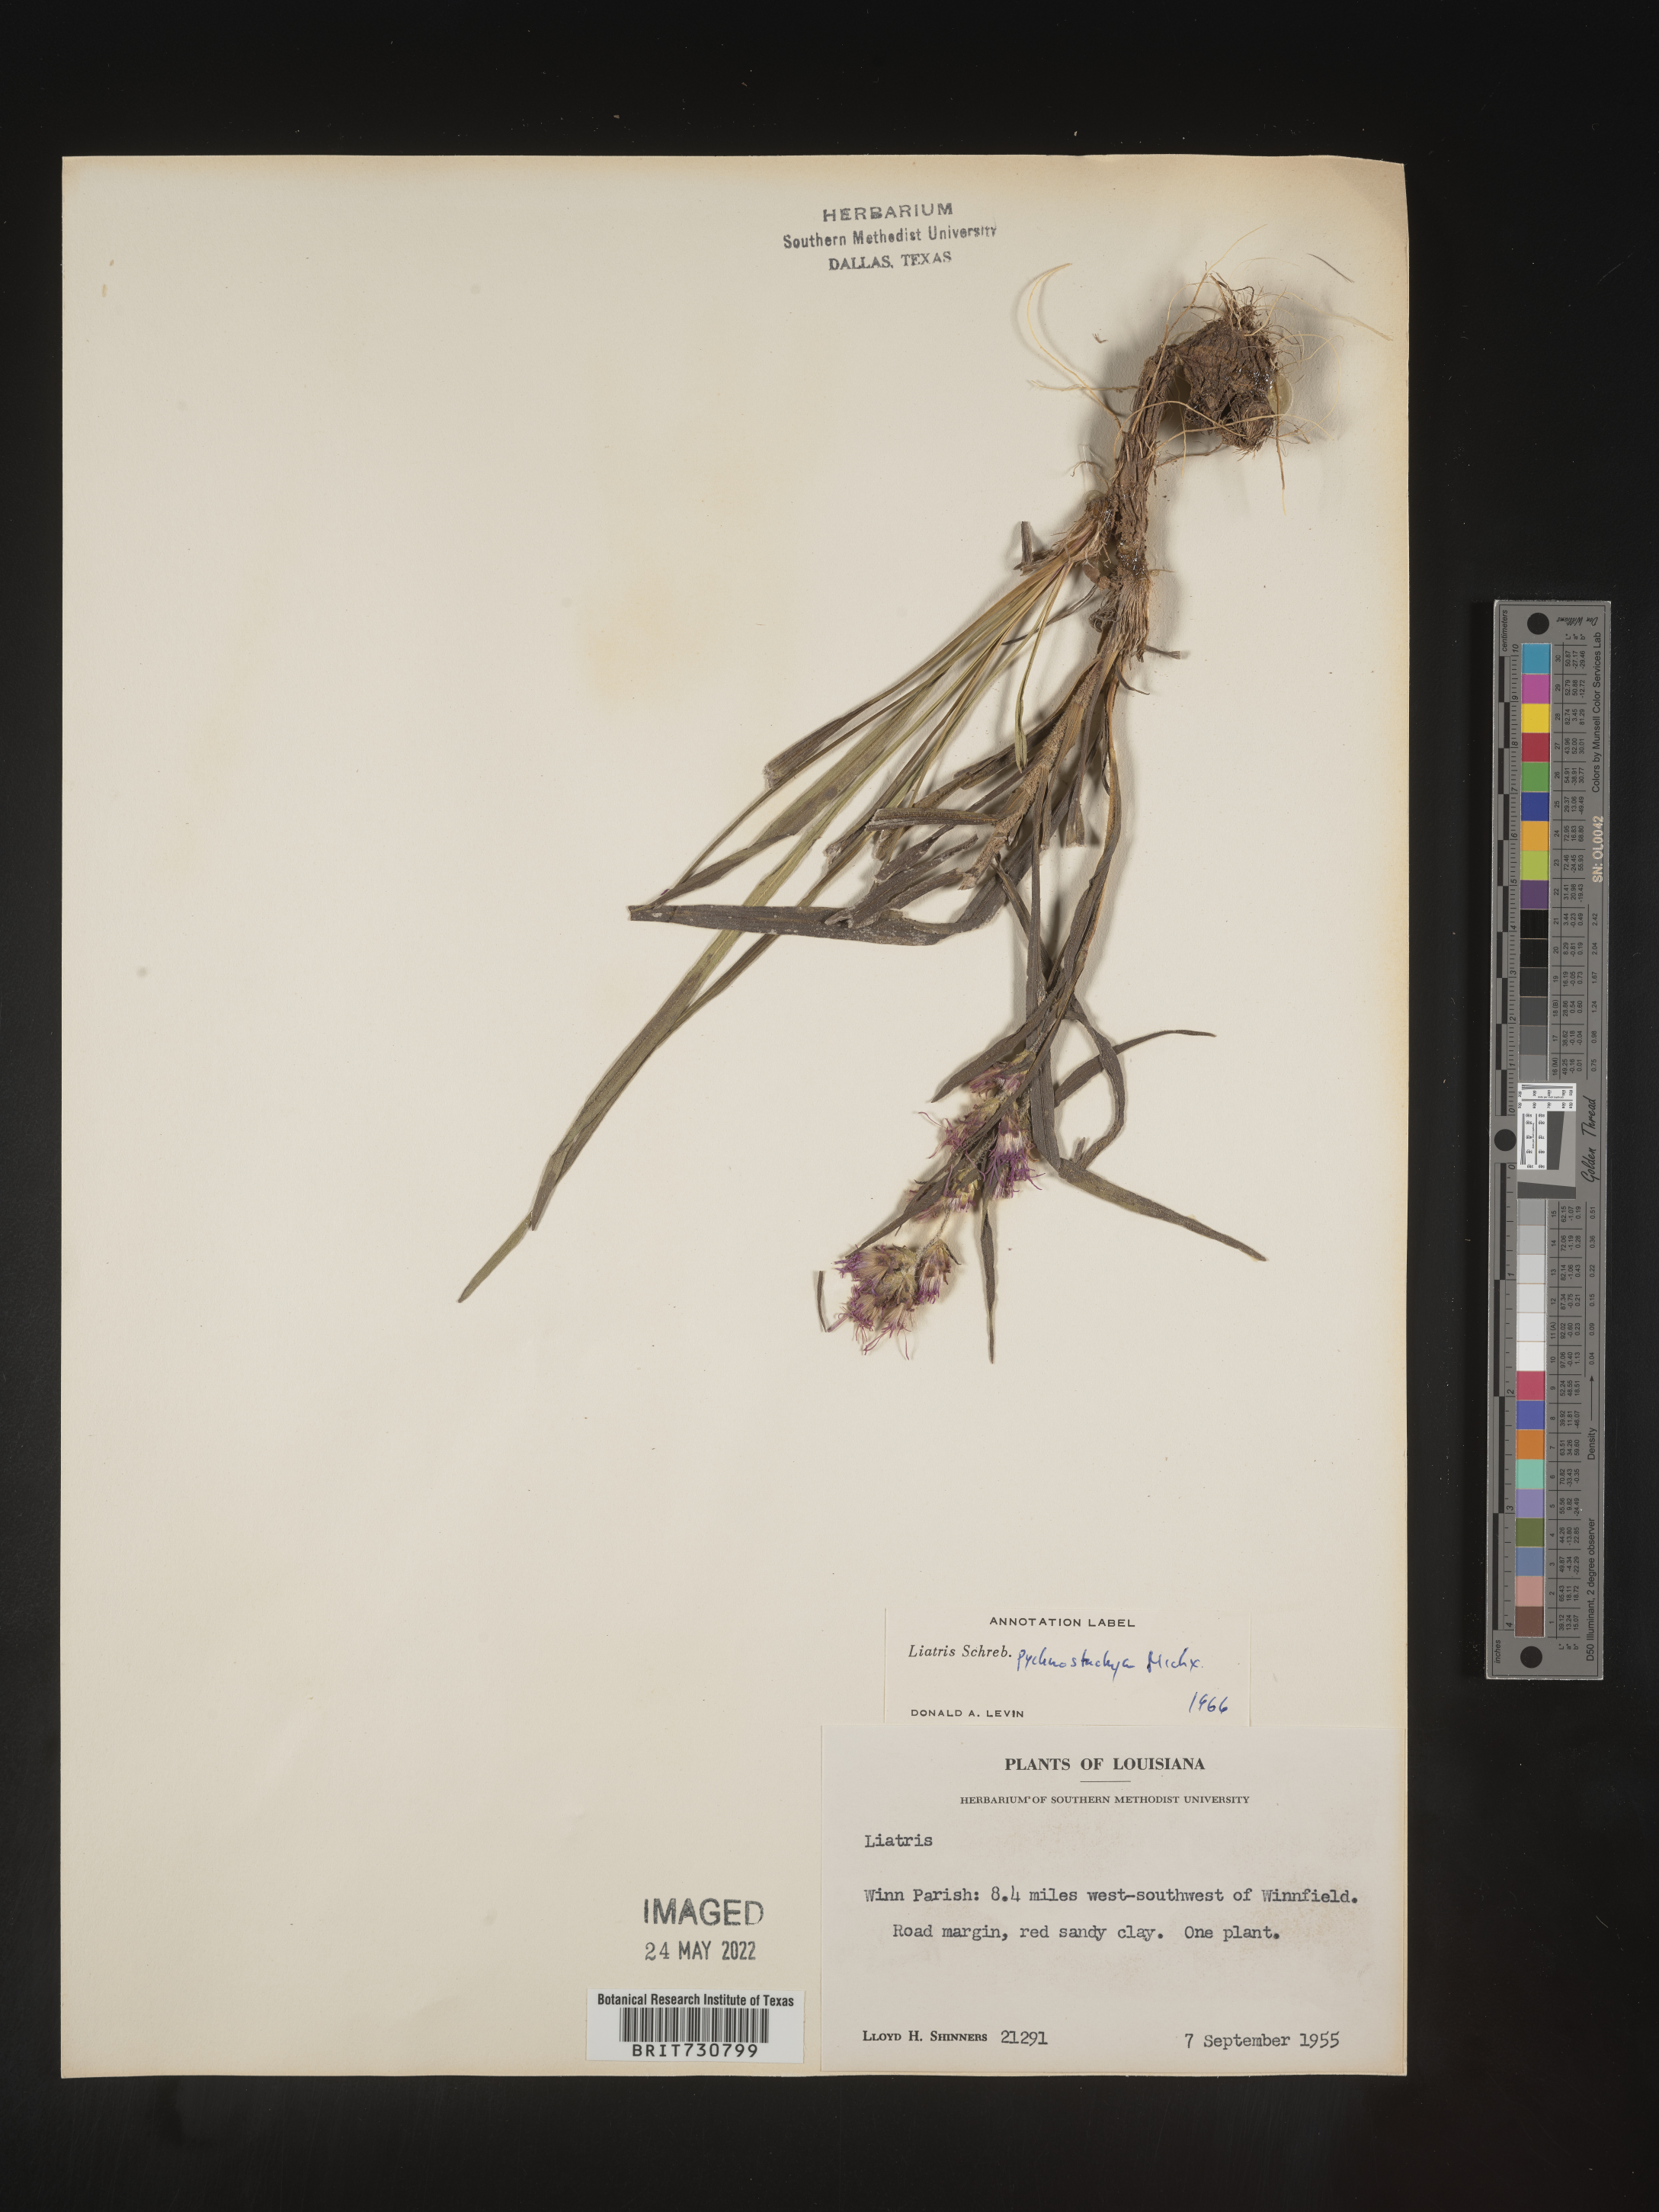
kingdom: Plantae
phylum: Tracheophyta
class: Magnoliopsida
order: Asterales
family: Asteraceae
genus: Liatris
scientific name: Liatris pycnostachya
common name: Cattail gayfeather
